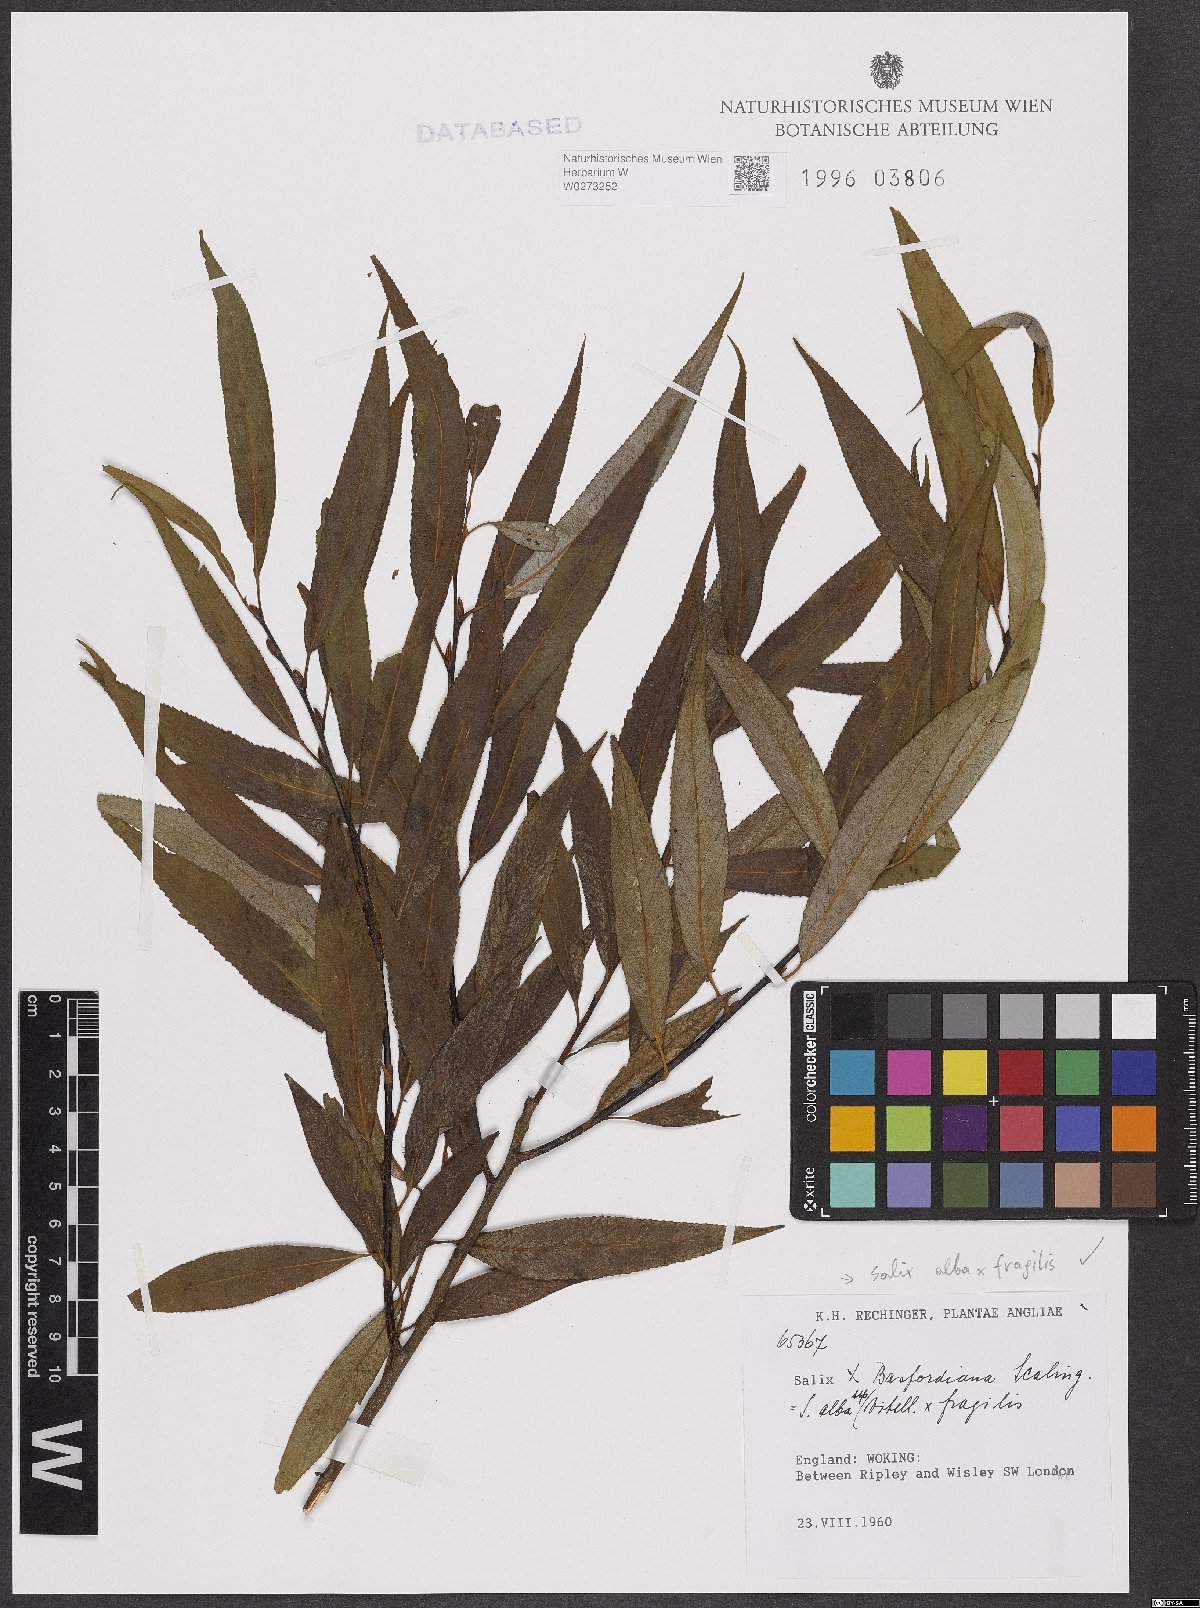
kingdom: Plantae
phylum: Tracheophyta
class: Magnoliopsida
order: Malpighiales
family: Salicaceae
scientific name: Salicaceae
